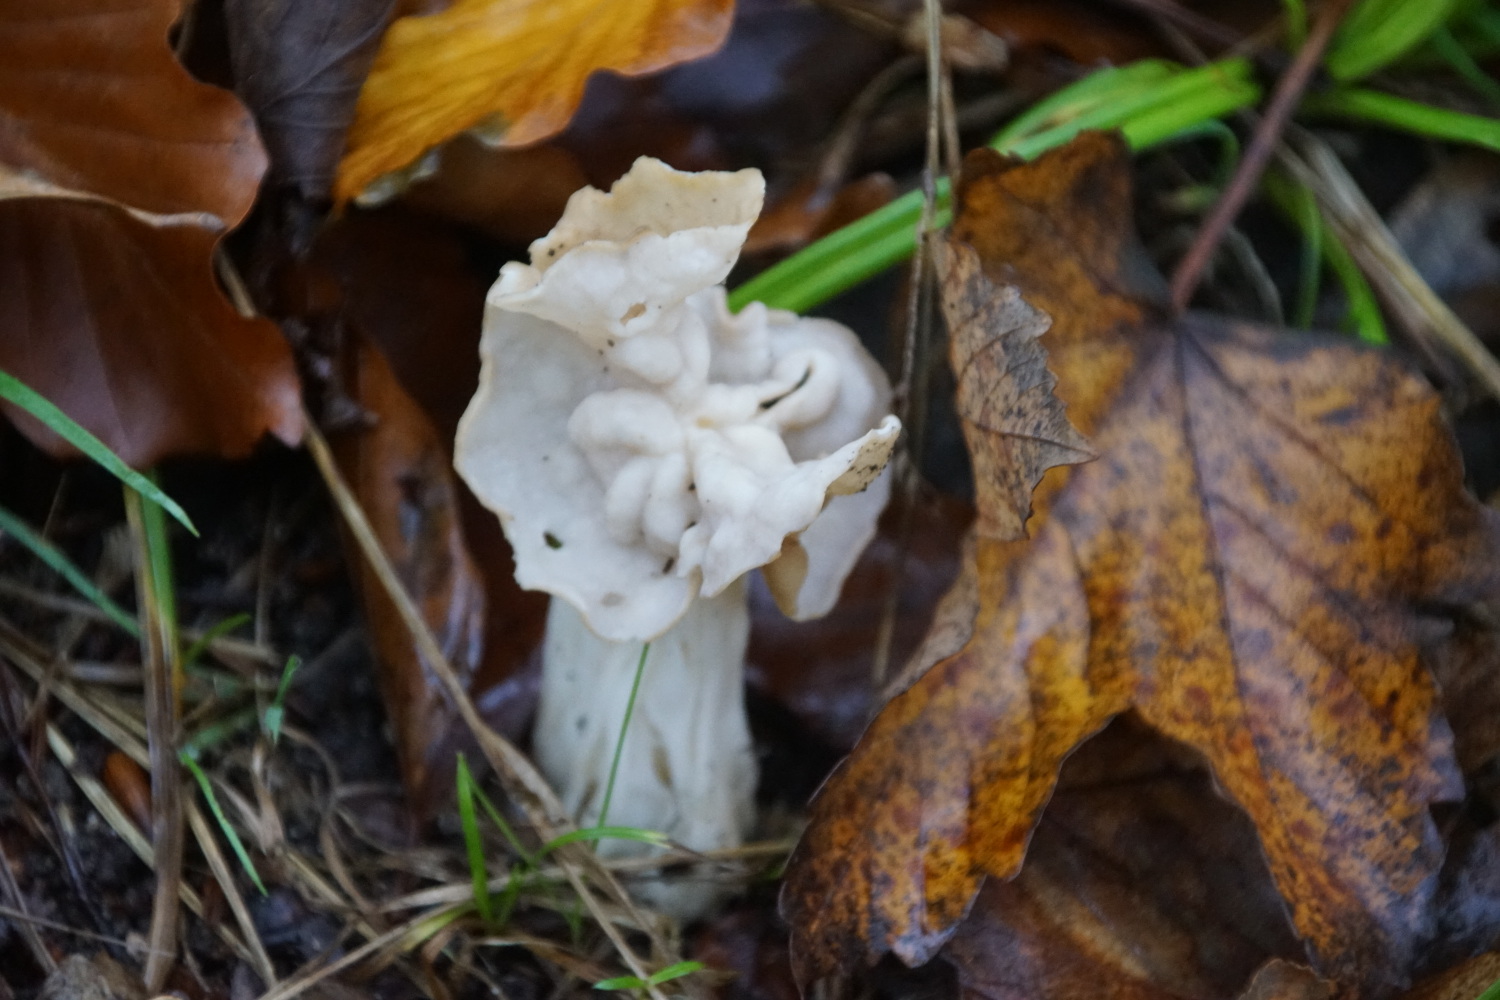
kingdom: Fungi
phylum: Ascomycota
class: Pezizomycetes
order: Pezizales
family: Helvellaceae
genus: Helvella
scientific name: Helvella crispa
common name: kruset foldhat
